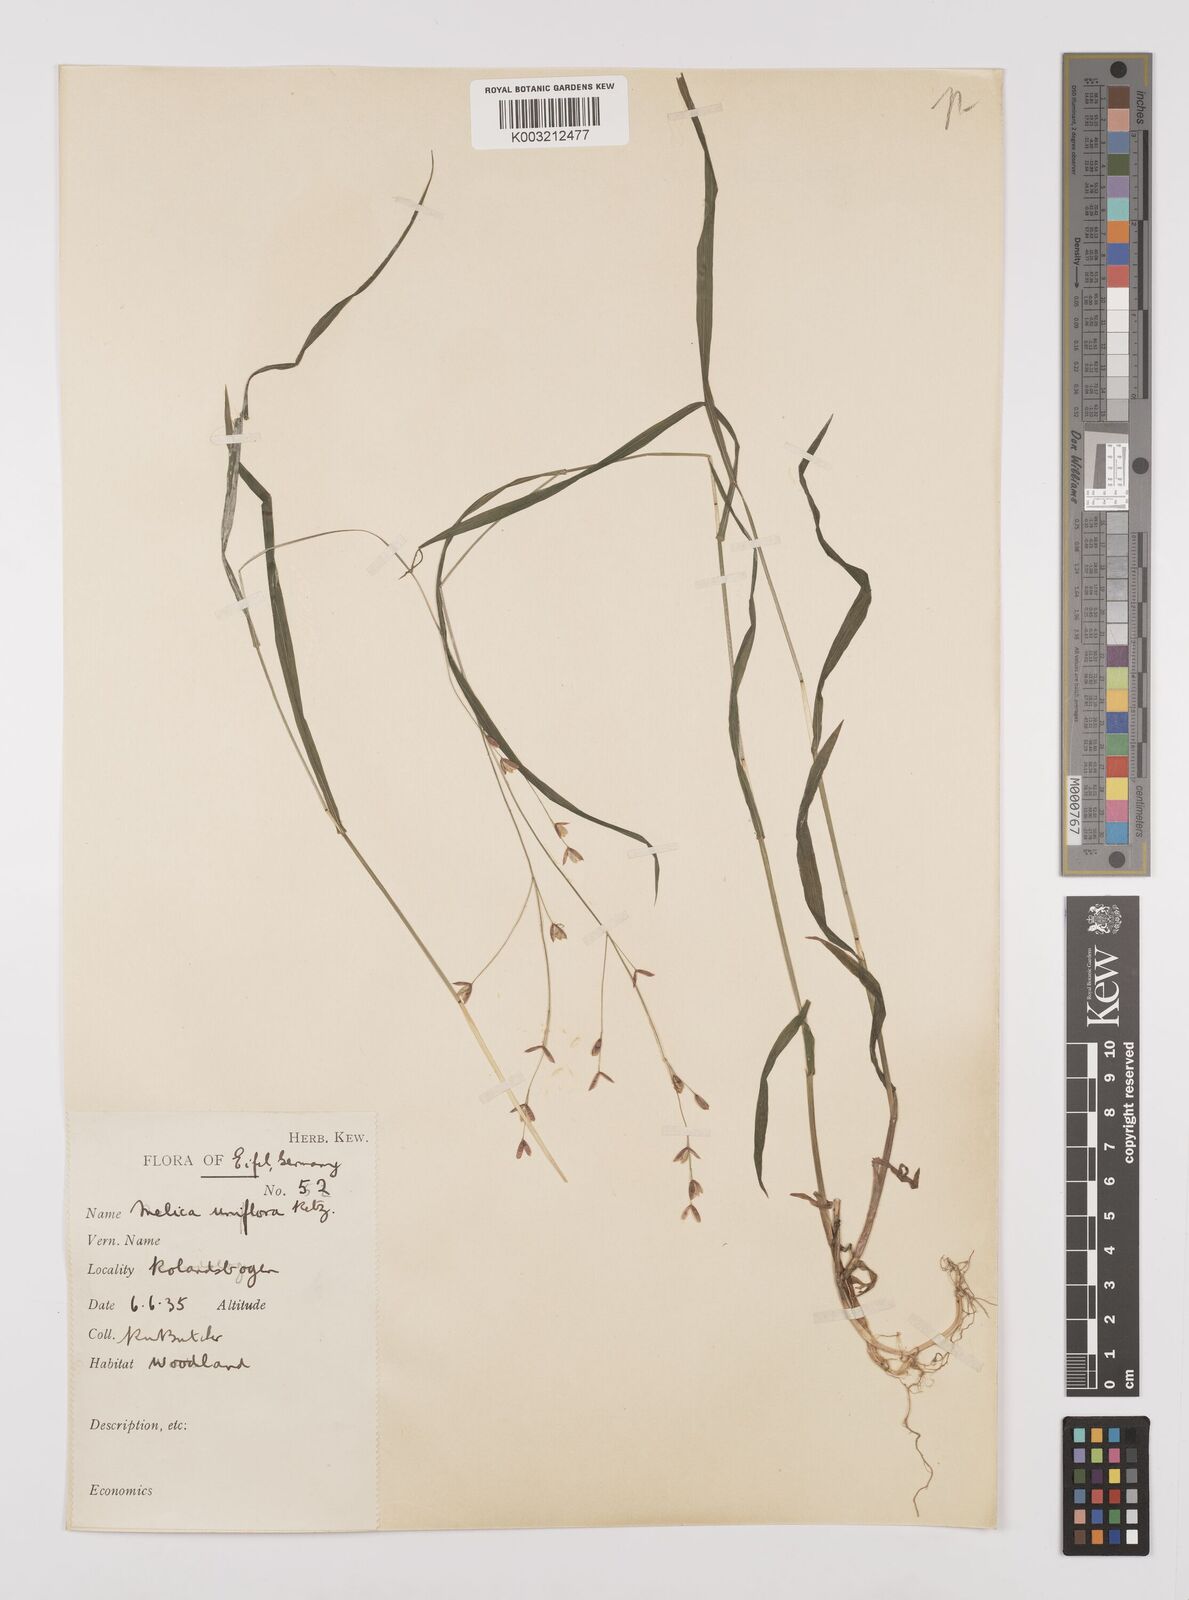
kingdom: Plantae
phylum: Tracheophyta
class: Liliopsida
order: Poales
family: Poaceae
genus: Melica
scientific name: Melica uniflora
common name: Wood melick
